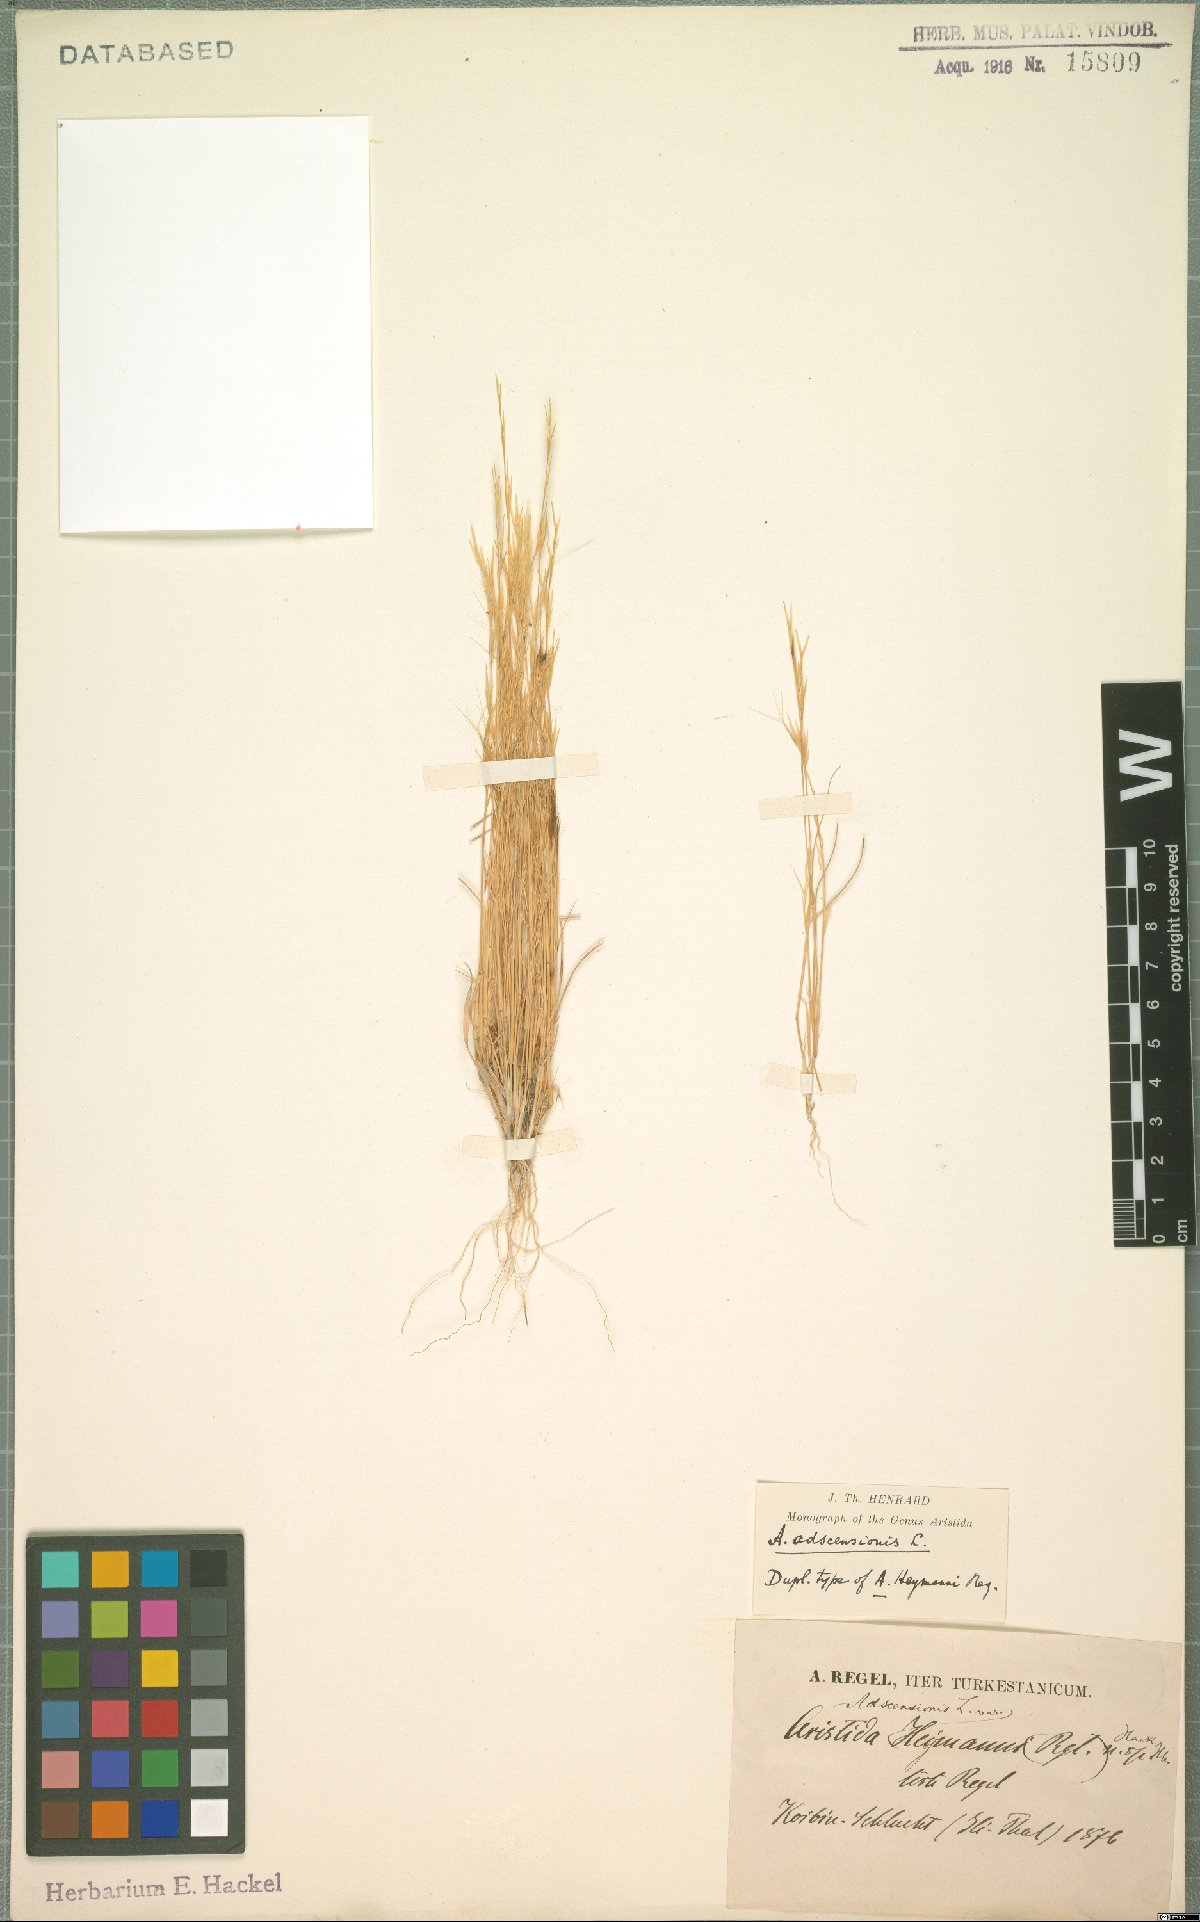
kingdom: Plantae
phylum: Tracheophyta
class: Liliopsida
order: Poales
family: Poaceae
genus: Aristida
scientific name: Aristida adscensionis
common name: Sixweeks threeawn
